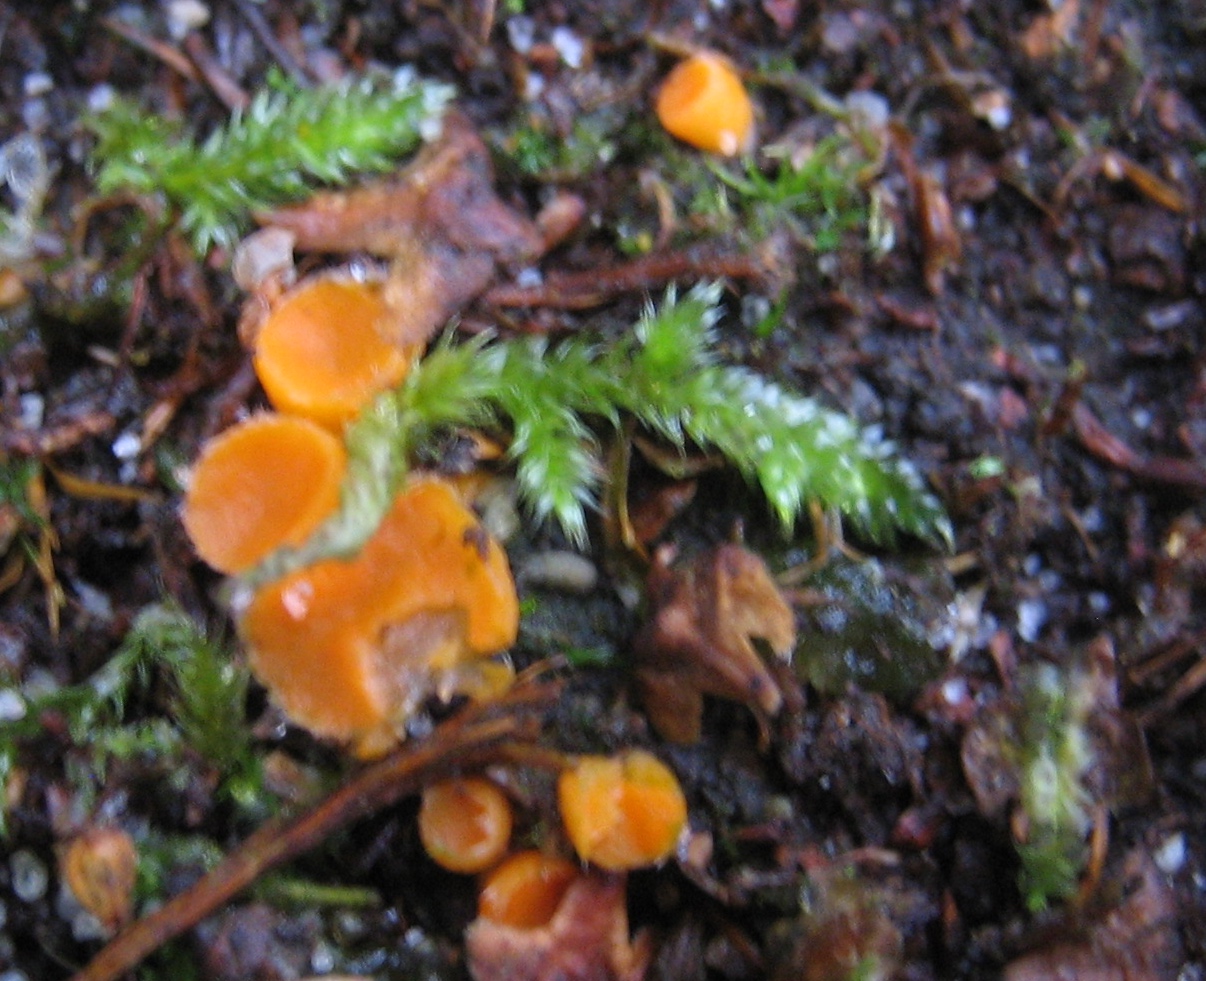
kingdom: Fungi
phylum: Ascomycota
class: Pezizomycetes
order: Pezizales
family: Pyronemataceae
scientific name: Pyronemataceae
